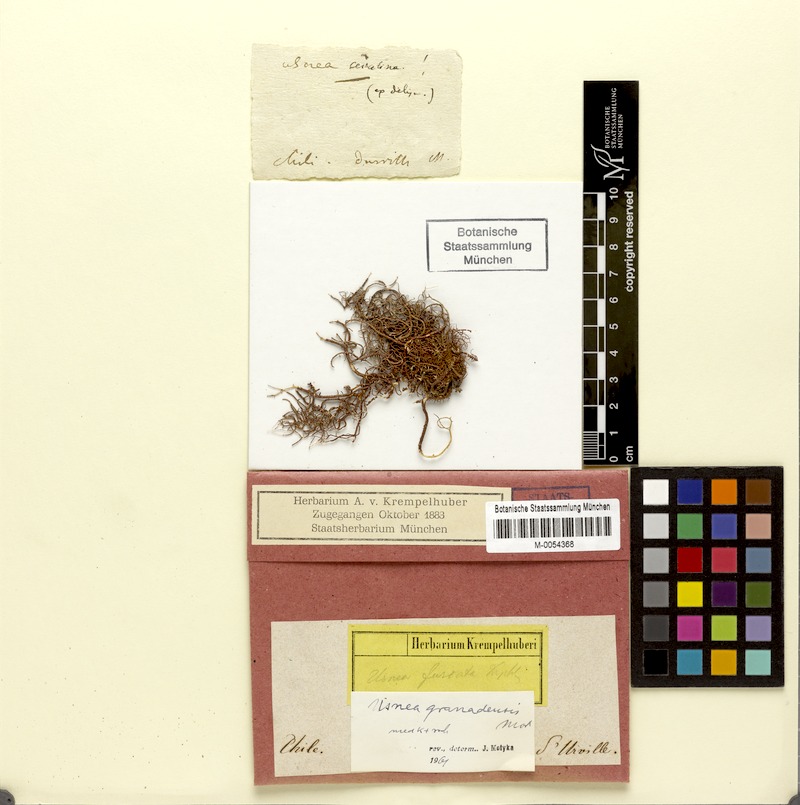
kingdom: Fungi
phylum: Ascomycota
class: Lecanoromycetes
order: Lecanorales
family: Parmeliaceae
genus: Usnea
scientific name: Usnea granadensis
